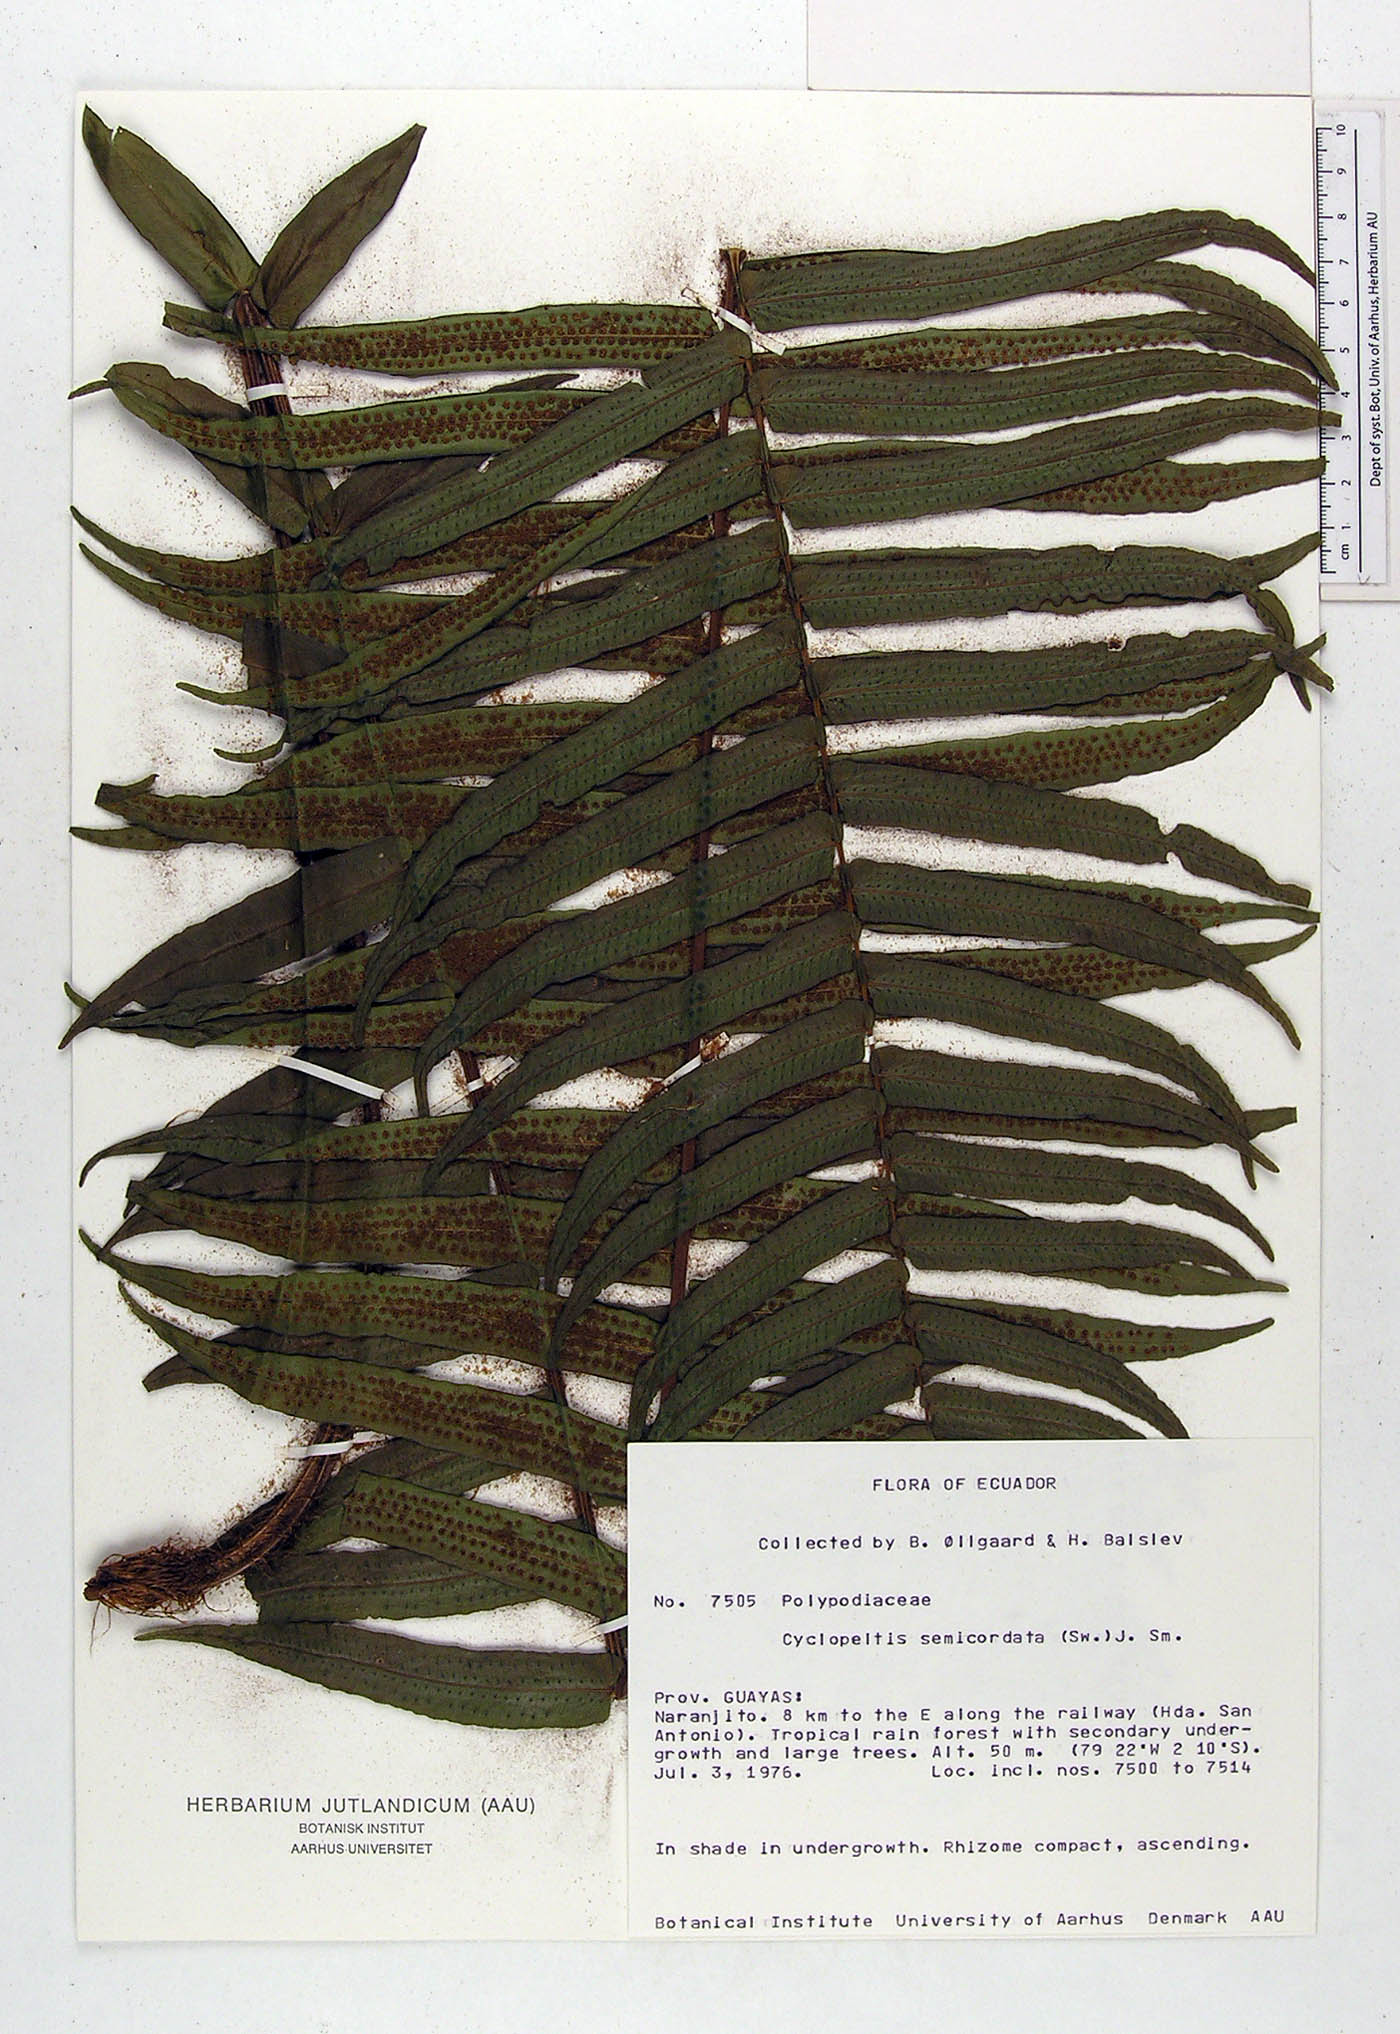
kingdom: Plantae
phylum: Tracheophyta
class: Polypodiopsida
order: Polypodiales
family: Lomariopsidaceae
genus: Cyclopeltis
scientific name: Cyclopeltis semicordata
